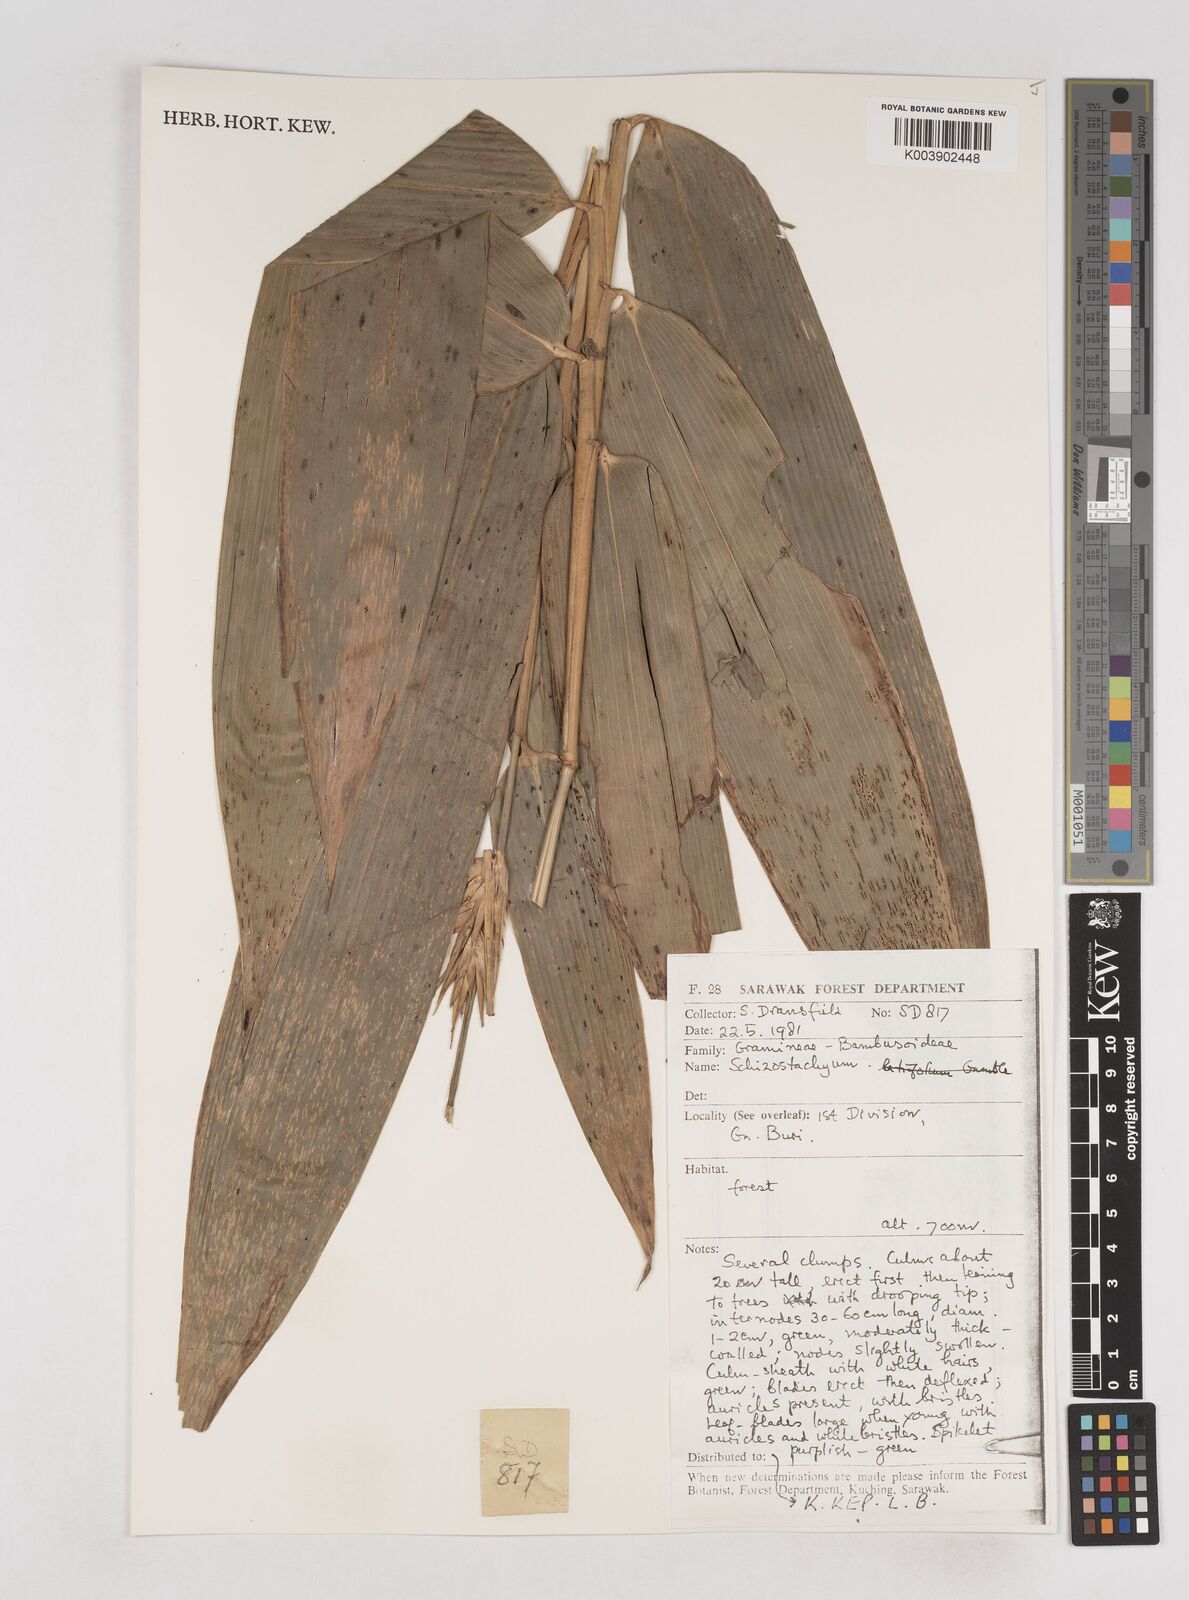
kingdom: Plantae
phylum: Tracheophyta
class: Liliopsida
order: Poales
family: Poaceae
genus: Schizostachyum
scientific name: Schizostachyum
